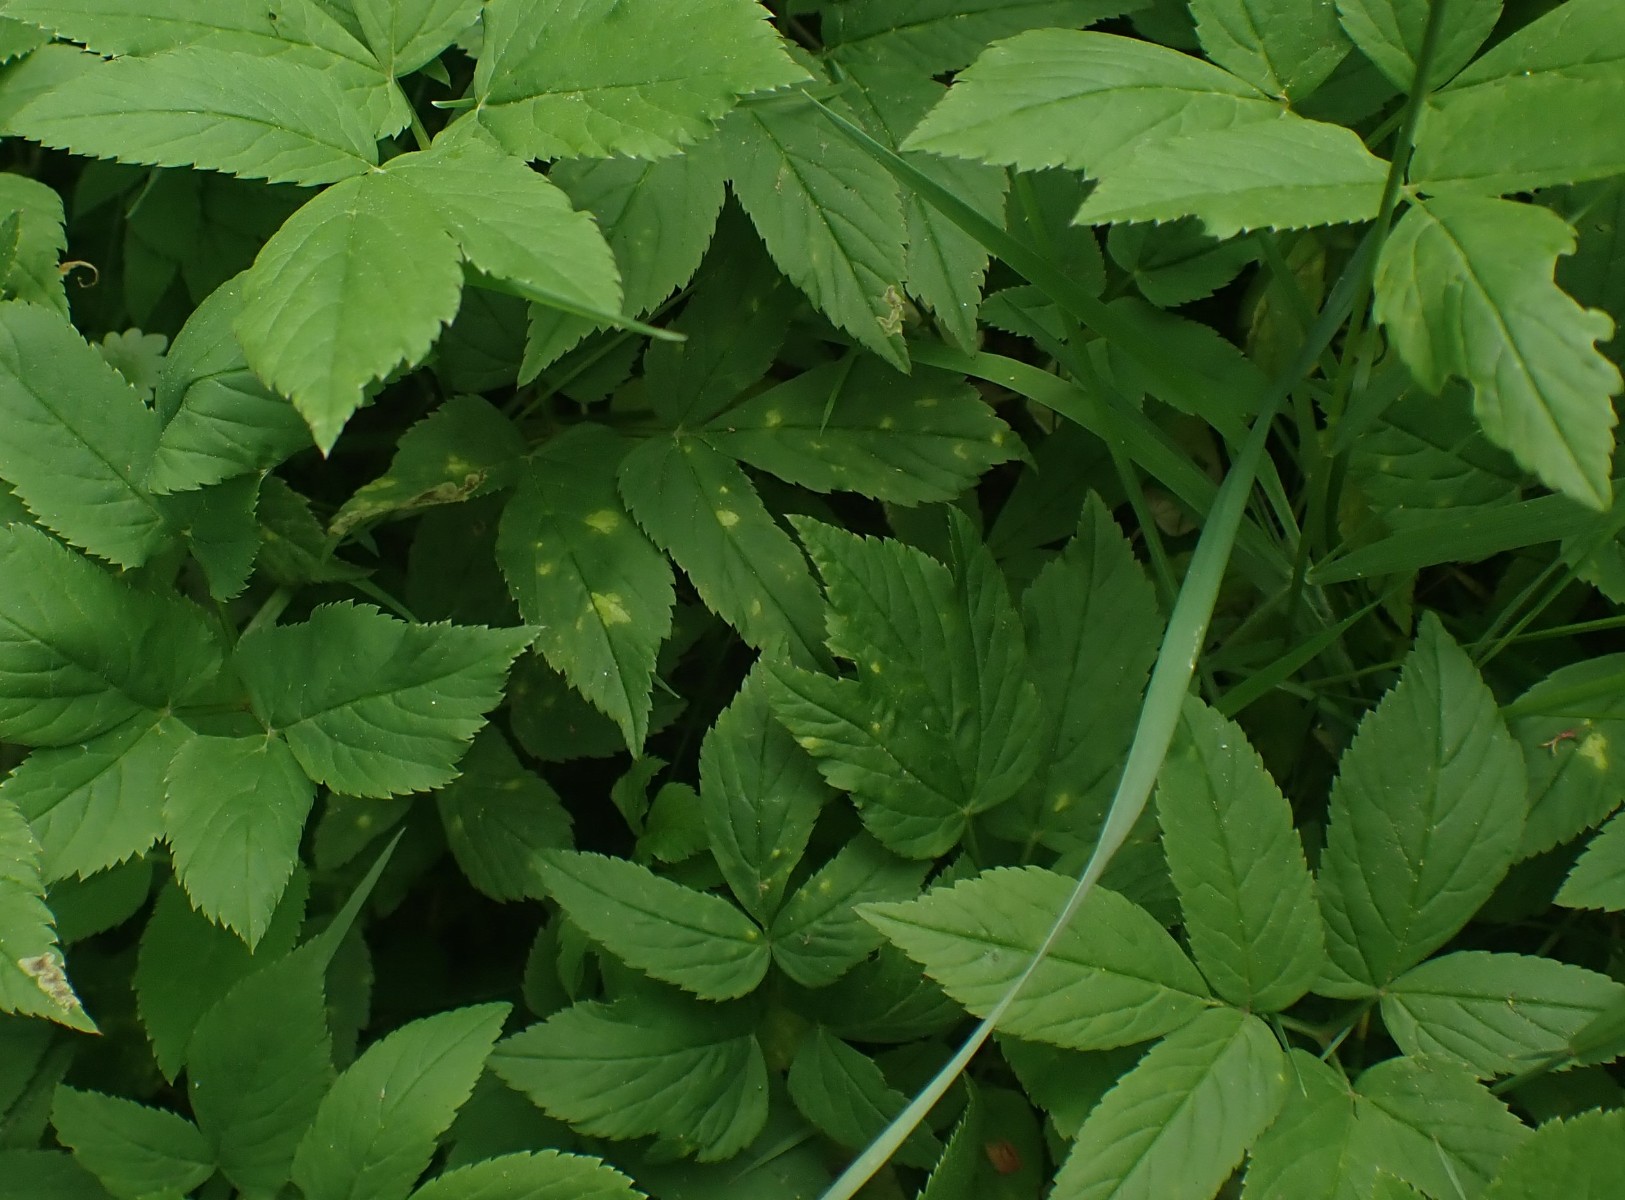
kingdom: Chromista
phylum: Oomycota
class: Peronosporea
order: Peronosporales
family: Peronosporaceae
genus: Peronospora
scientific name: Peronospora crustosa
